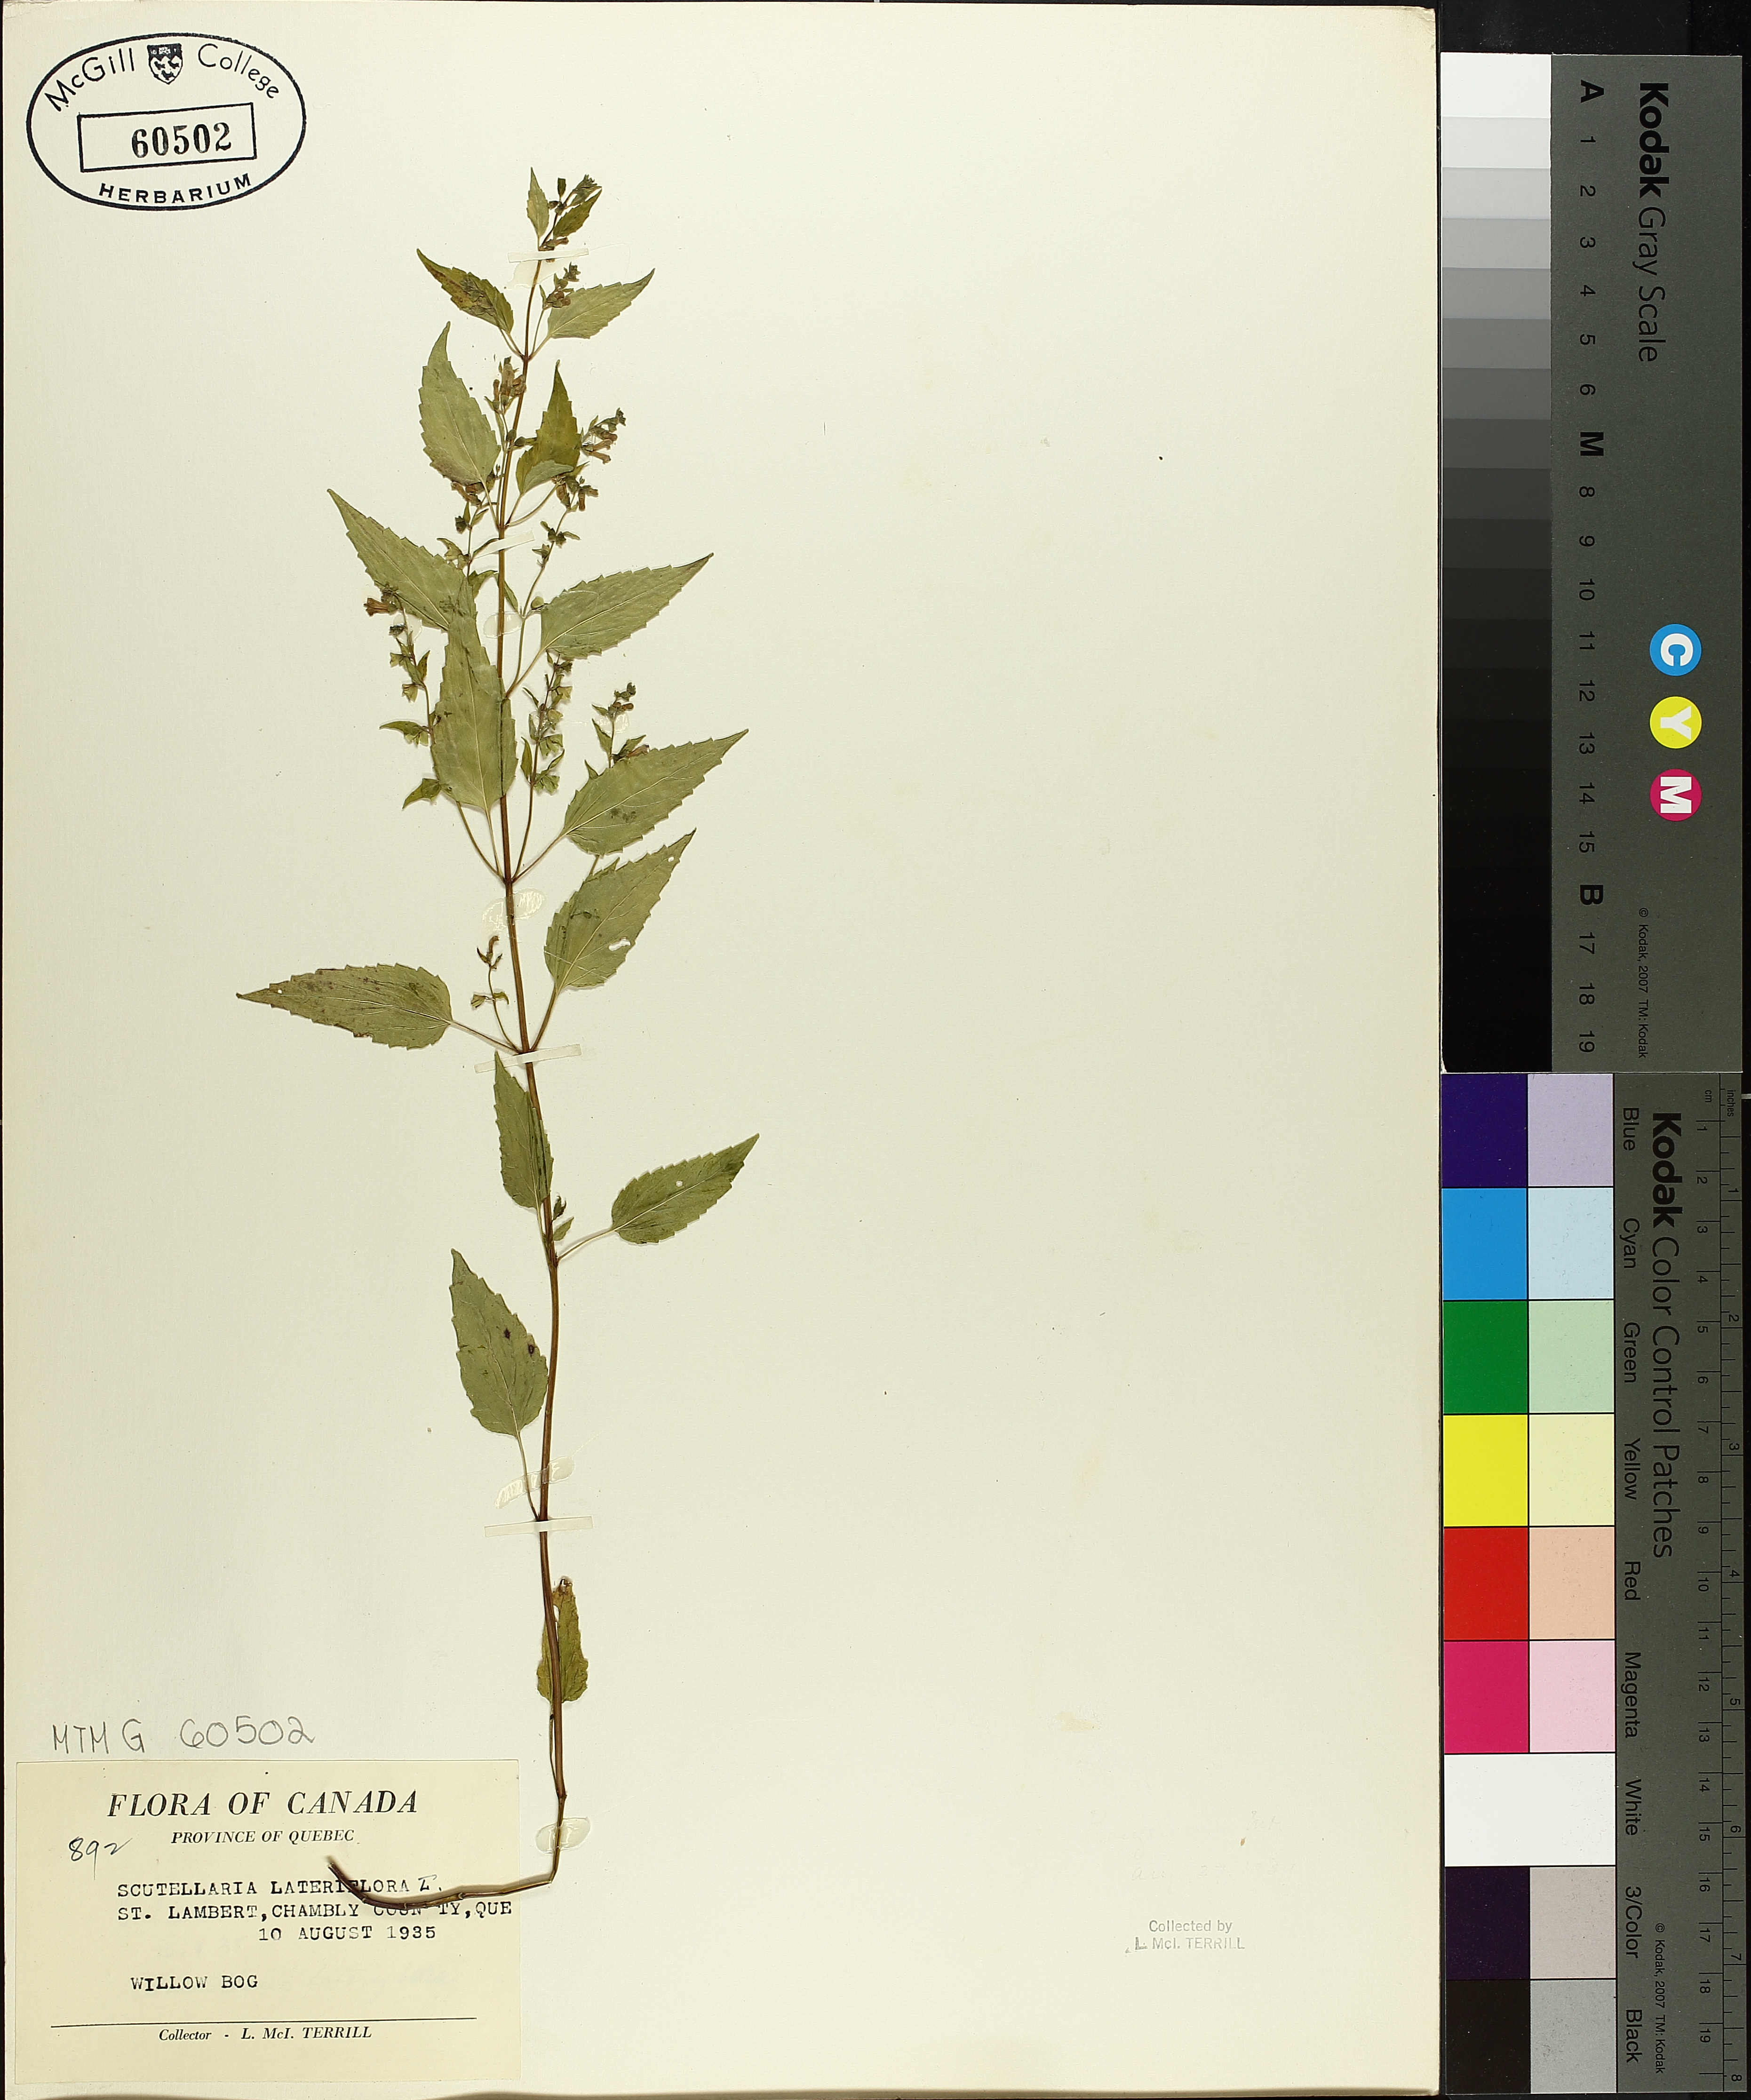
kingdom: Plantae
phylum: Tracheophyta
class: Magnoliopsida
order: Lamiales
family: Lamiaceae
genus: Scutellaria
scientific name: Scutellaria lateriflora
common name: Blue skullcap
